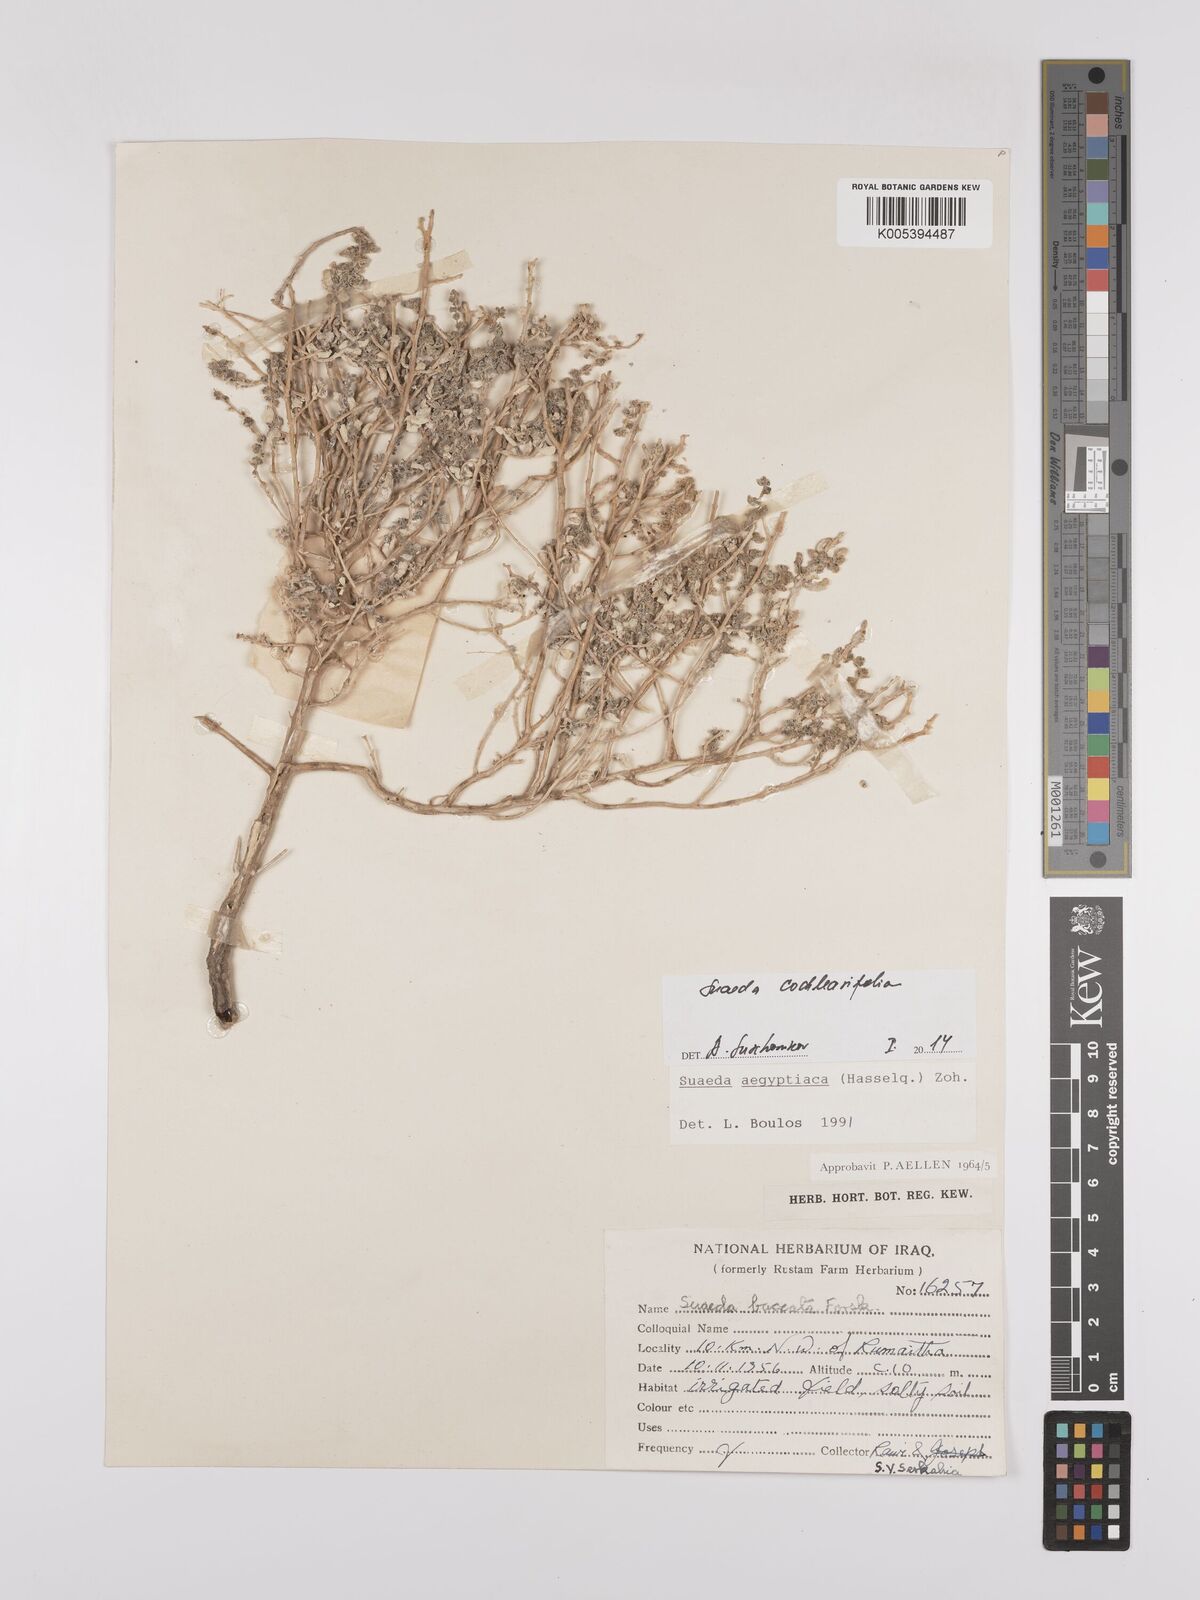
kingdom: Plantae
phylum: Tracheophyta
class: Magnoliopsida
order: Caryophyllales
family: Amaranthaceae
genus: Suaeda
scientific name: Suaeda acuminata
